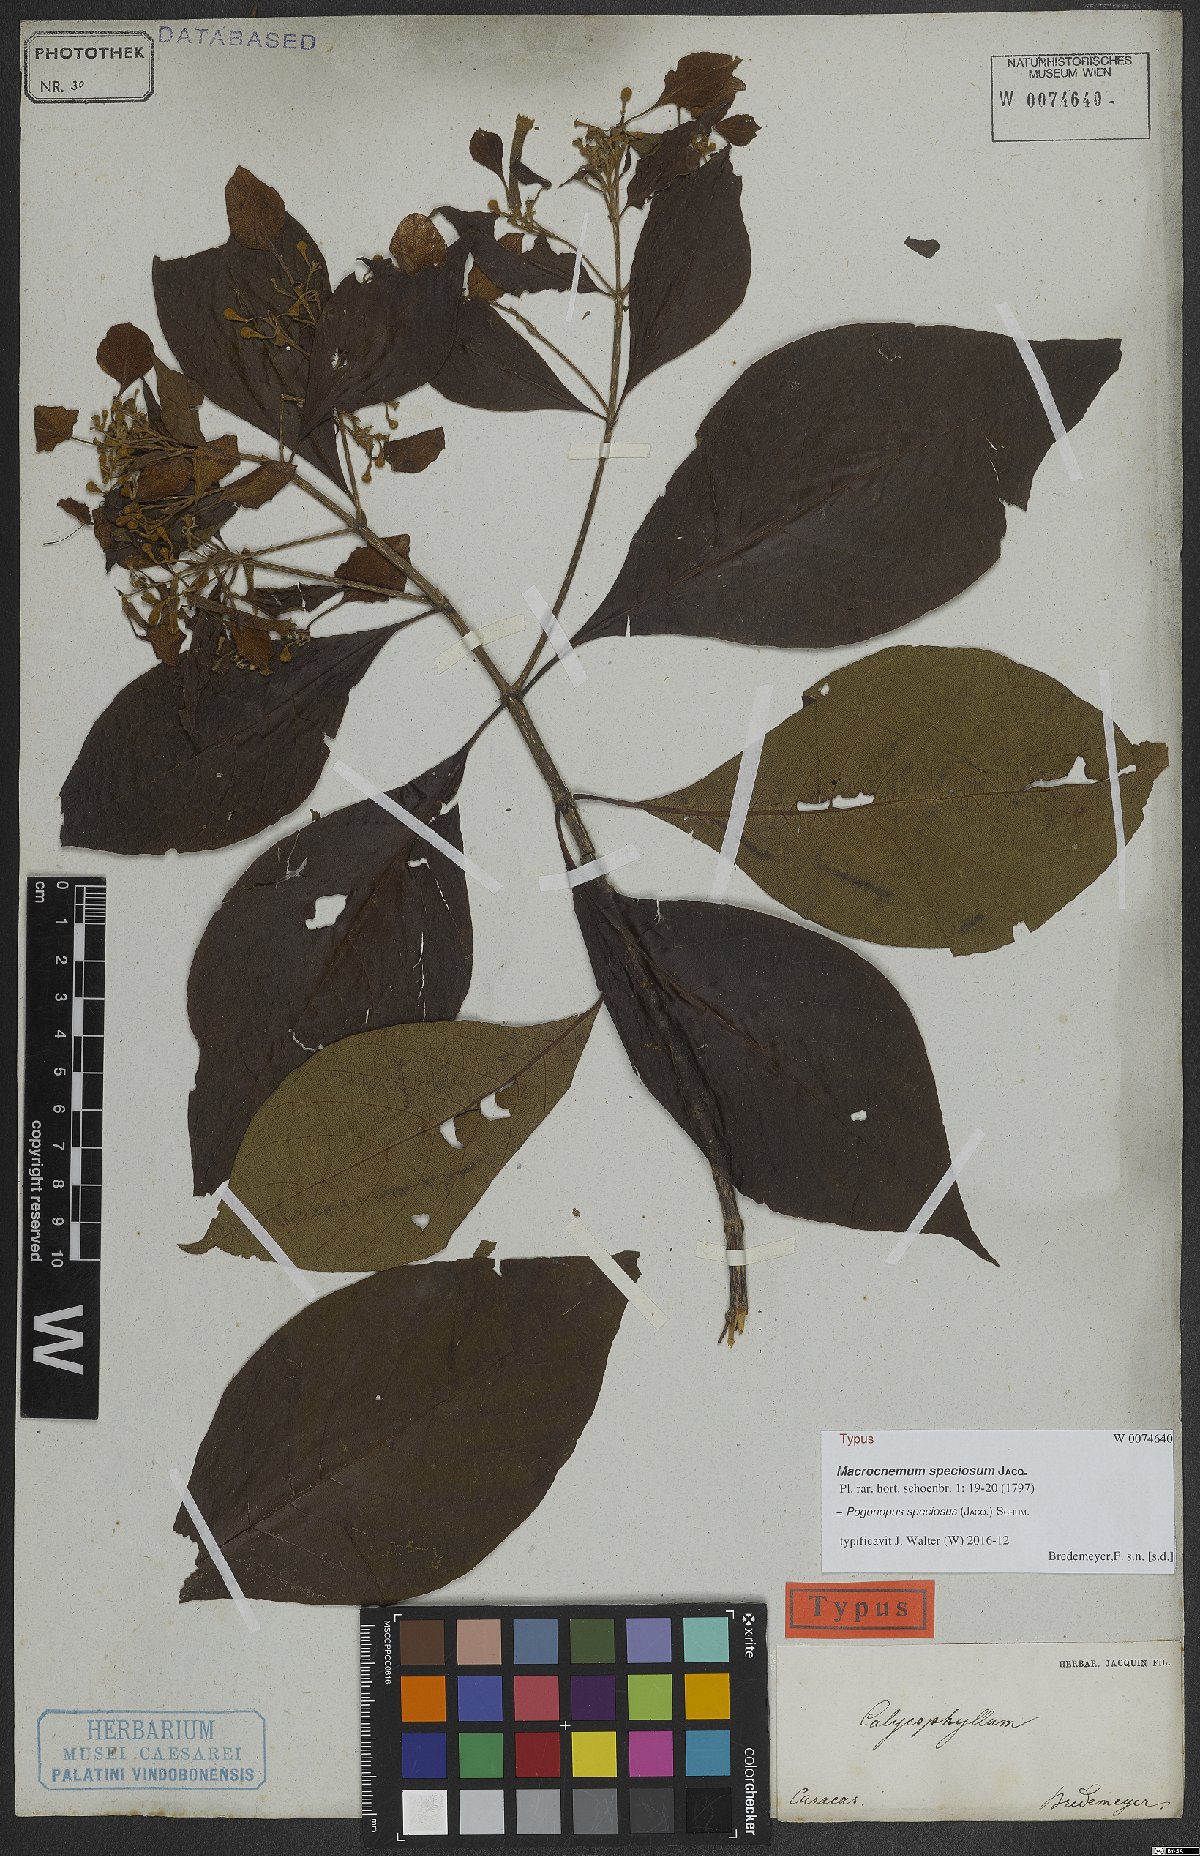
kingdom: Plantae
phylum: Tracheophyta
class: Magnoliopsida
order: Gentianales
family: Rubiaceae
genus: Pogonopus
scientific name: Pogonopus speciosus
